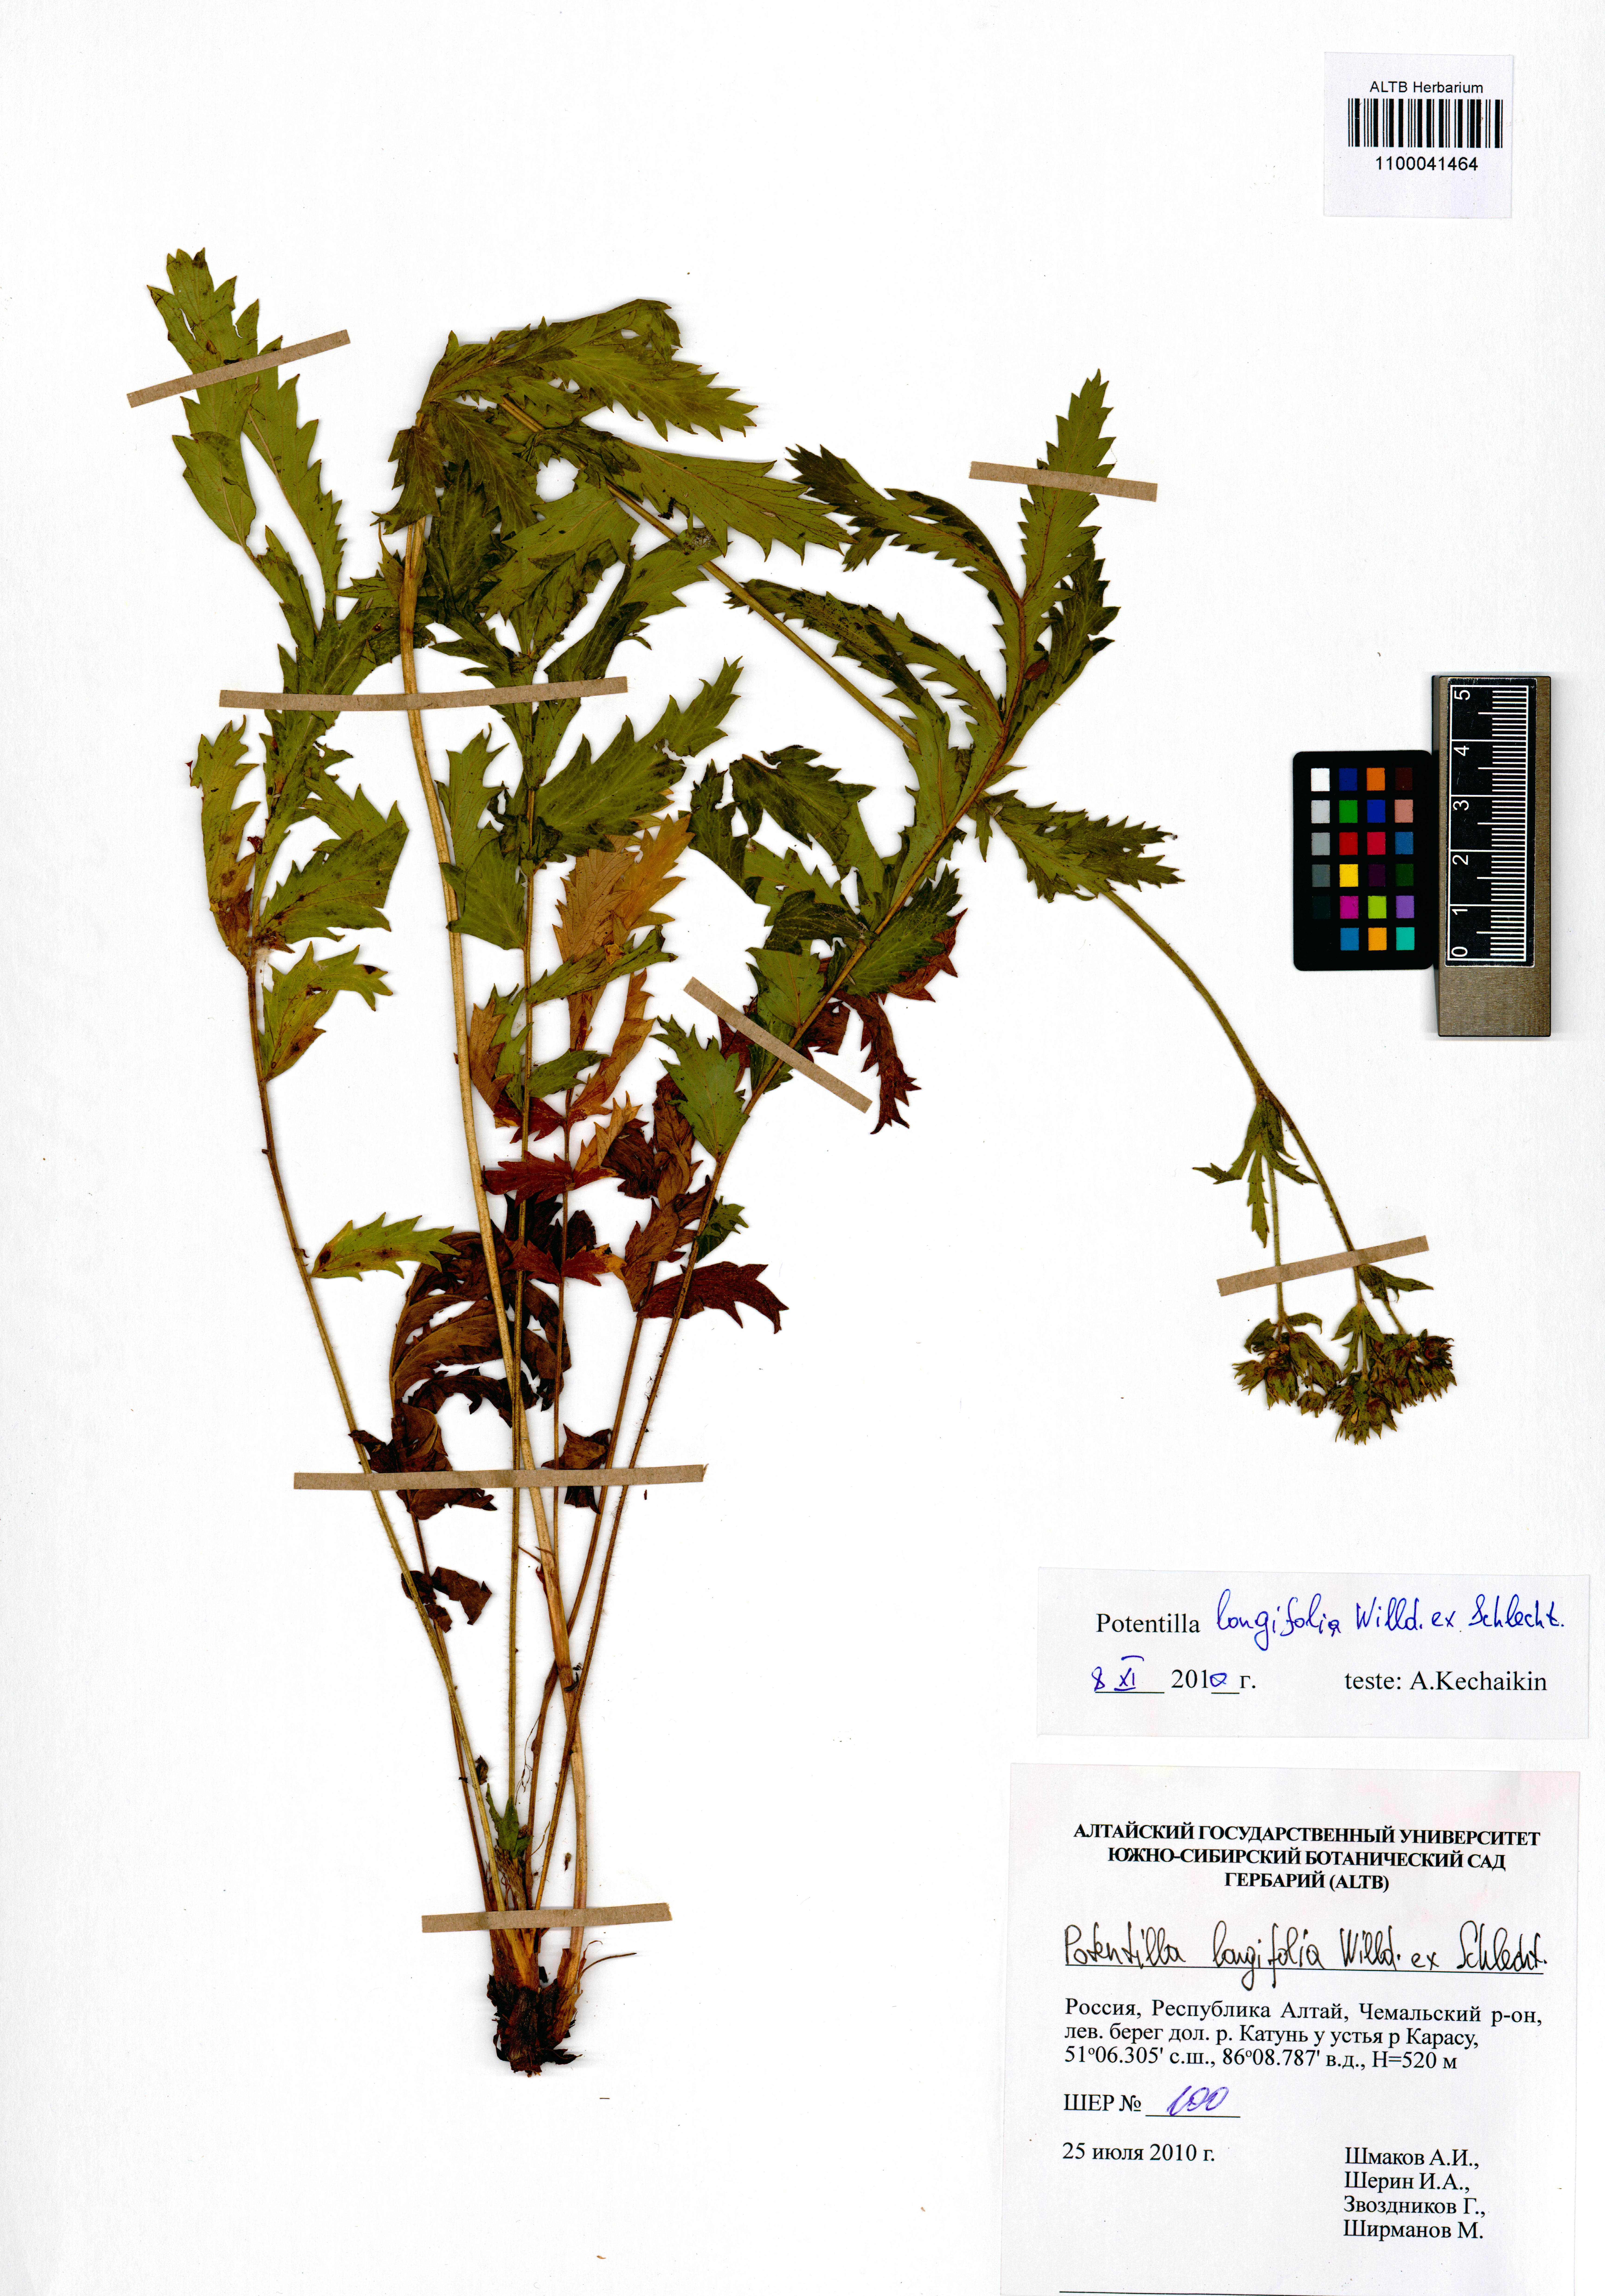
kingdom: Plantae
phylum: Tracheophyta
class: Magnoliopsida
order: Rosales
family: Rosaceae
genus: Potentilla
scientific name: Potentilla longifolia
